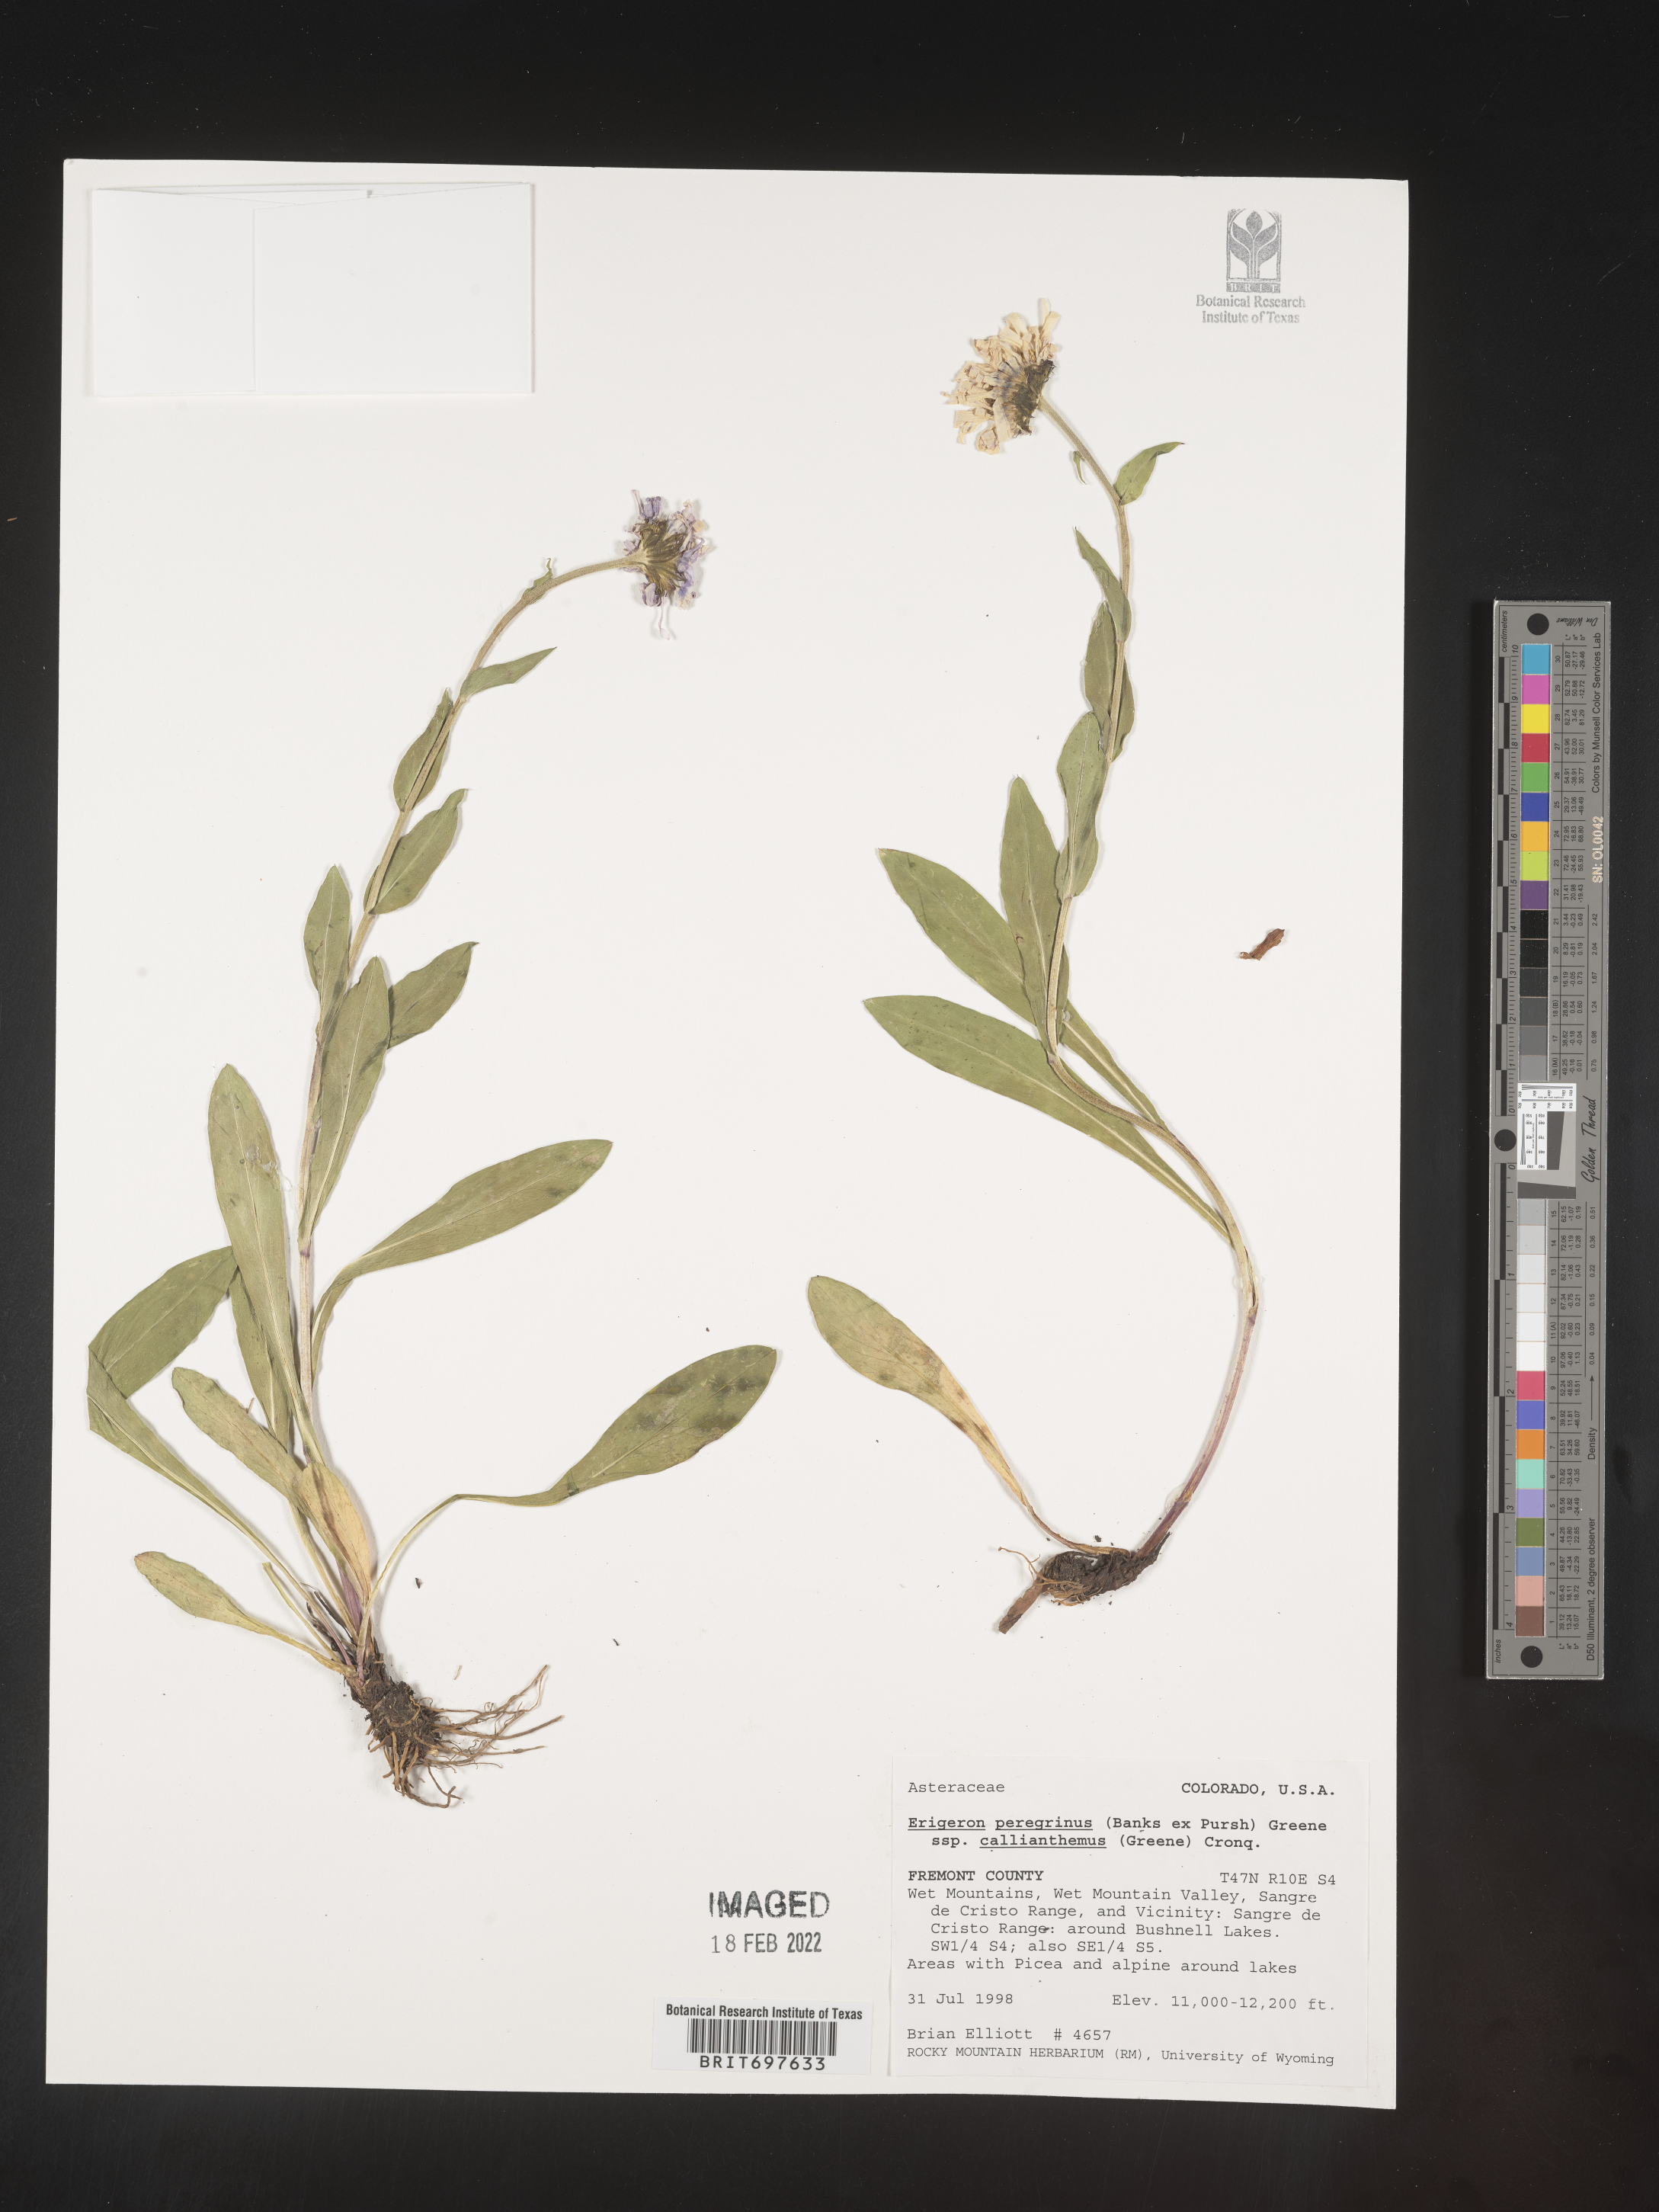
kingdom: Plantae
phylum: Tracheophyta
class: Magnoliopsida
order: Asterales
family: Asteraceae
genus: Erigeron
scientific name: Erigeron peregrinus
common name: Peregrine fleabane
